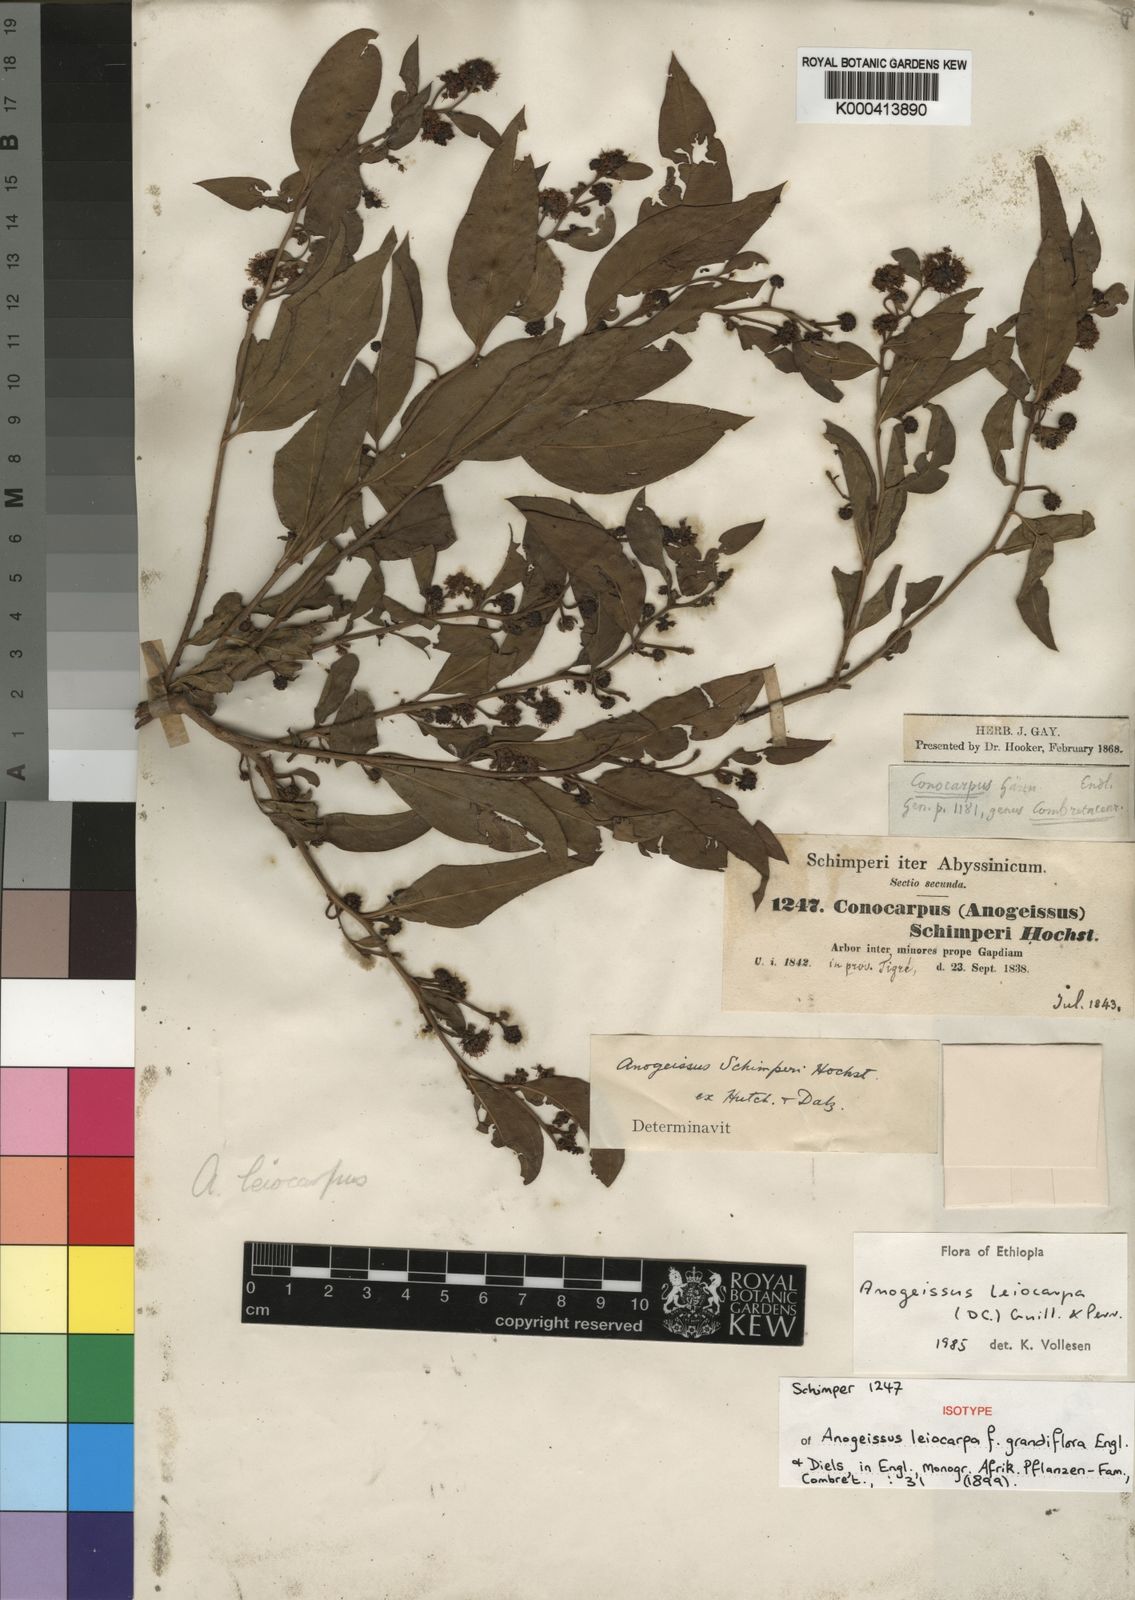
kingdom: Plantae
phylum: Tracheophyta
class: Magnoliopsida
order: Myrtales
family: Combretaceae
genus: Terminalia
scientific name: Terminalia leiocarpa
